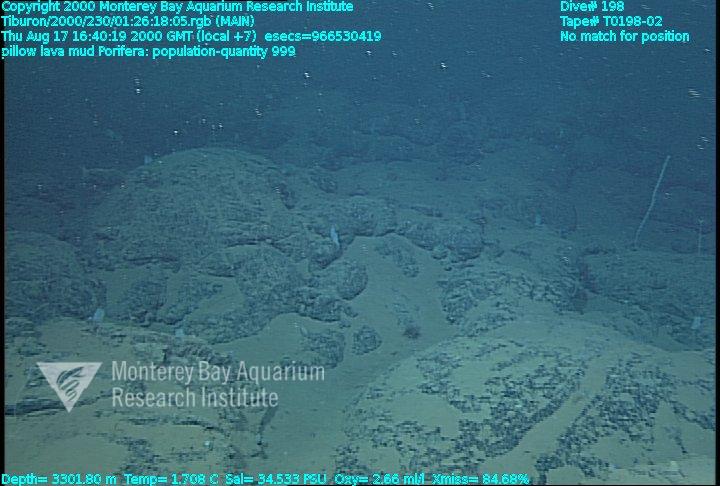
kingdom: Animalia
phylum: Porifera
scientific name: Porifera
